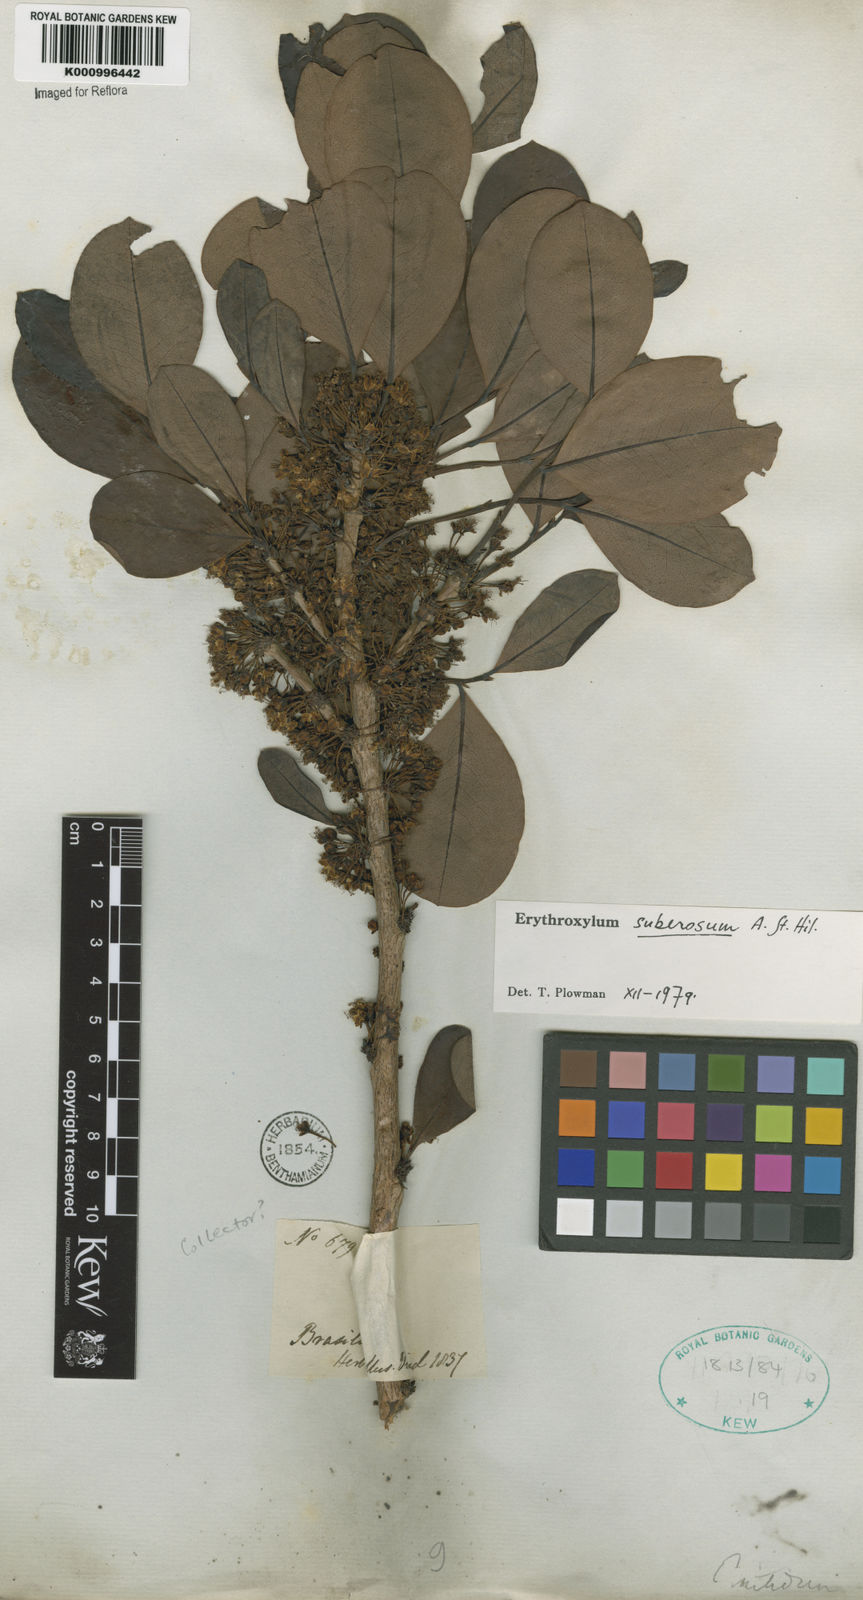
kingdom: Plantae
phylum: Tracheophyta
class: Magnoliopsida
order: Malpighiales
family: Erythroxylaceae
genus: Erythroxylum
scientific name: Erythroxylum suberosum
